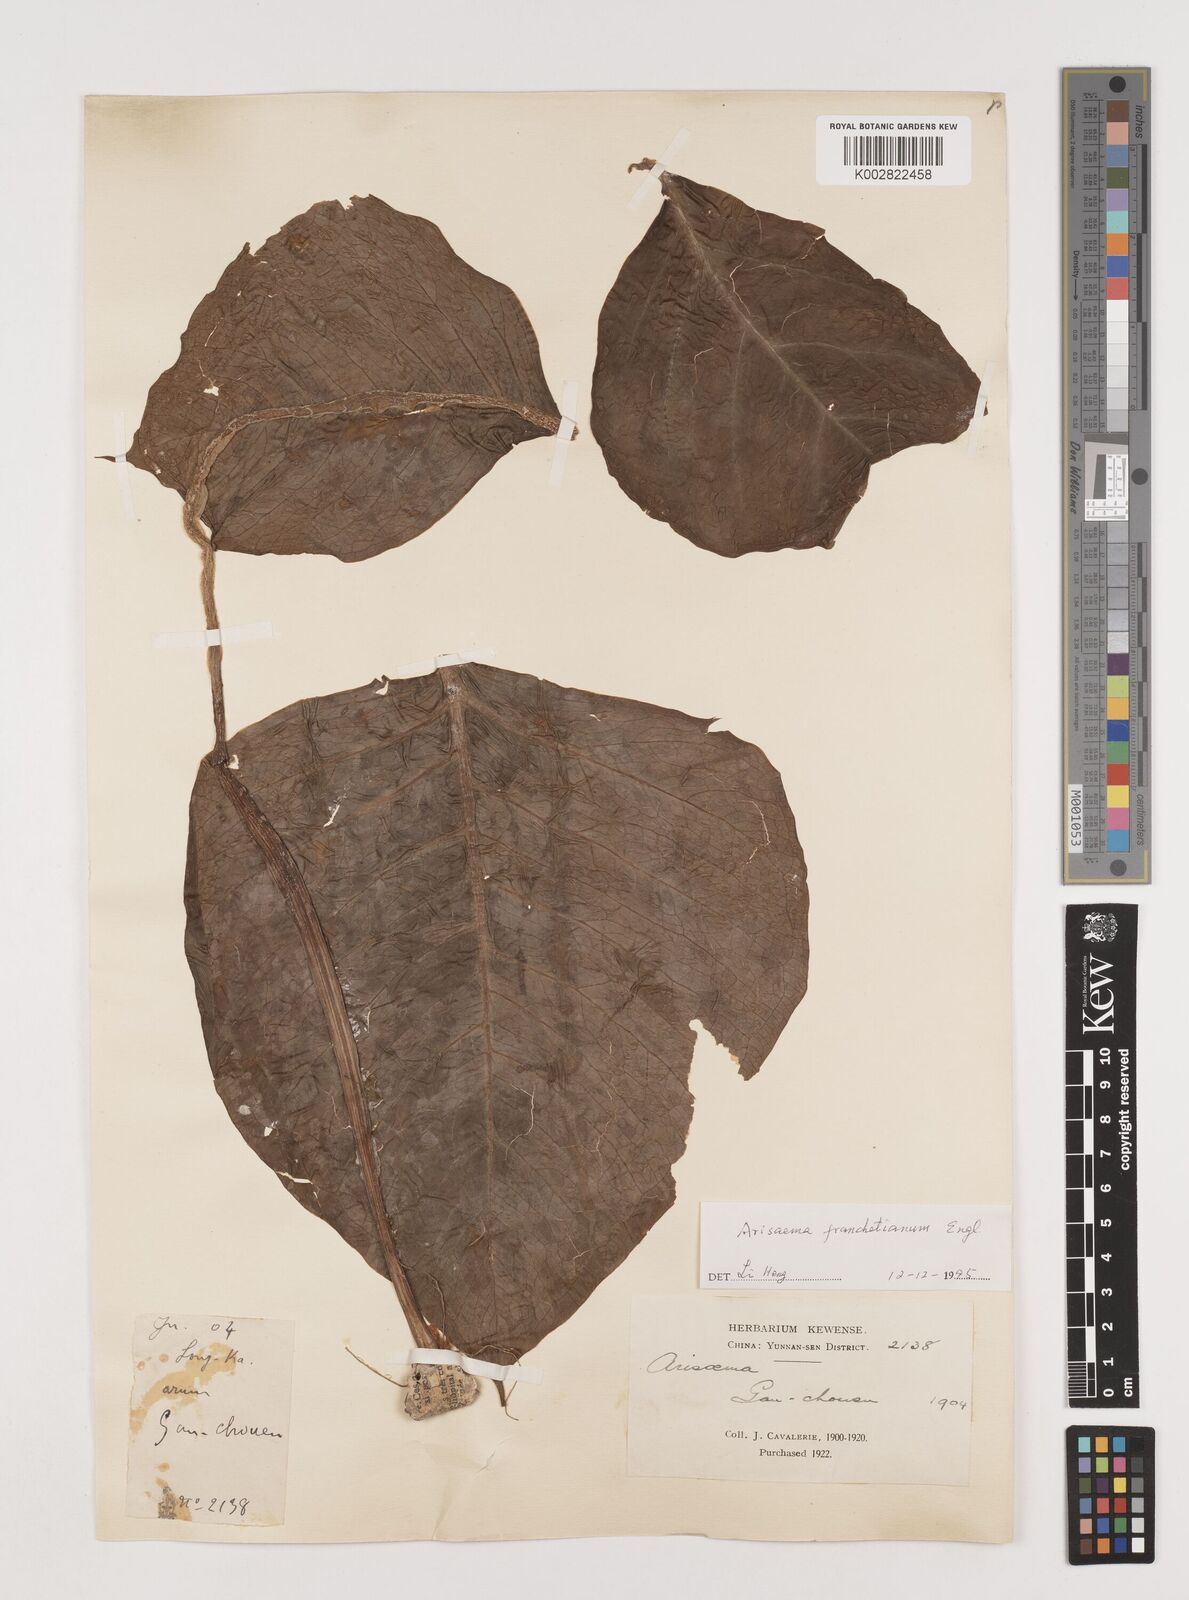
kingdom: Plantae
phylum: Tracheophyta
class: Liliopsida
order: Alismatales
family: Araceae
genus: Arisaema
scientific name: Arisaema franchetianum
